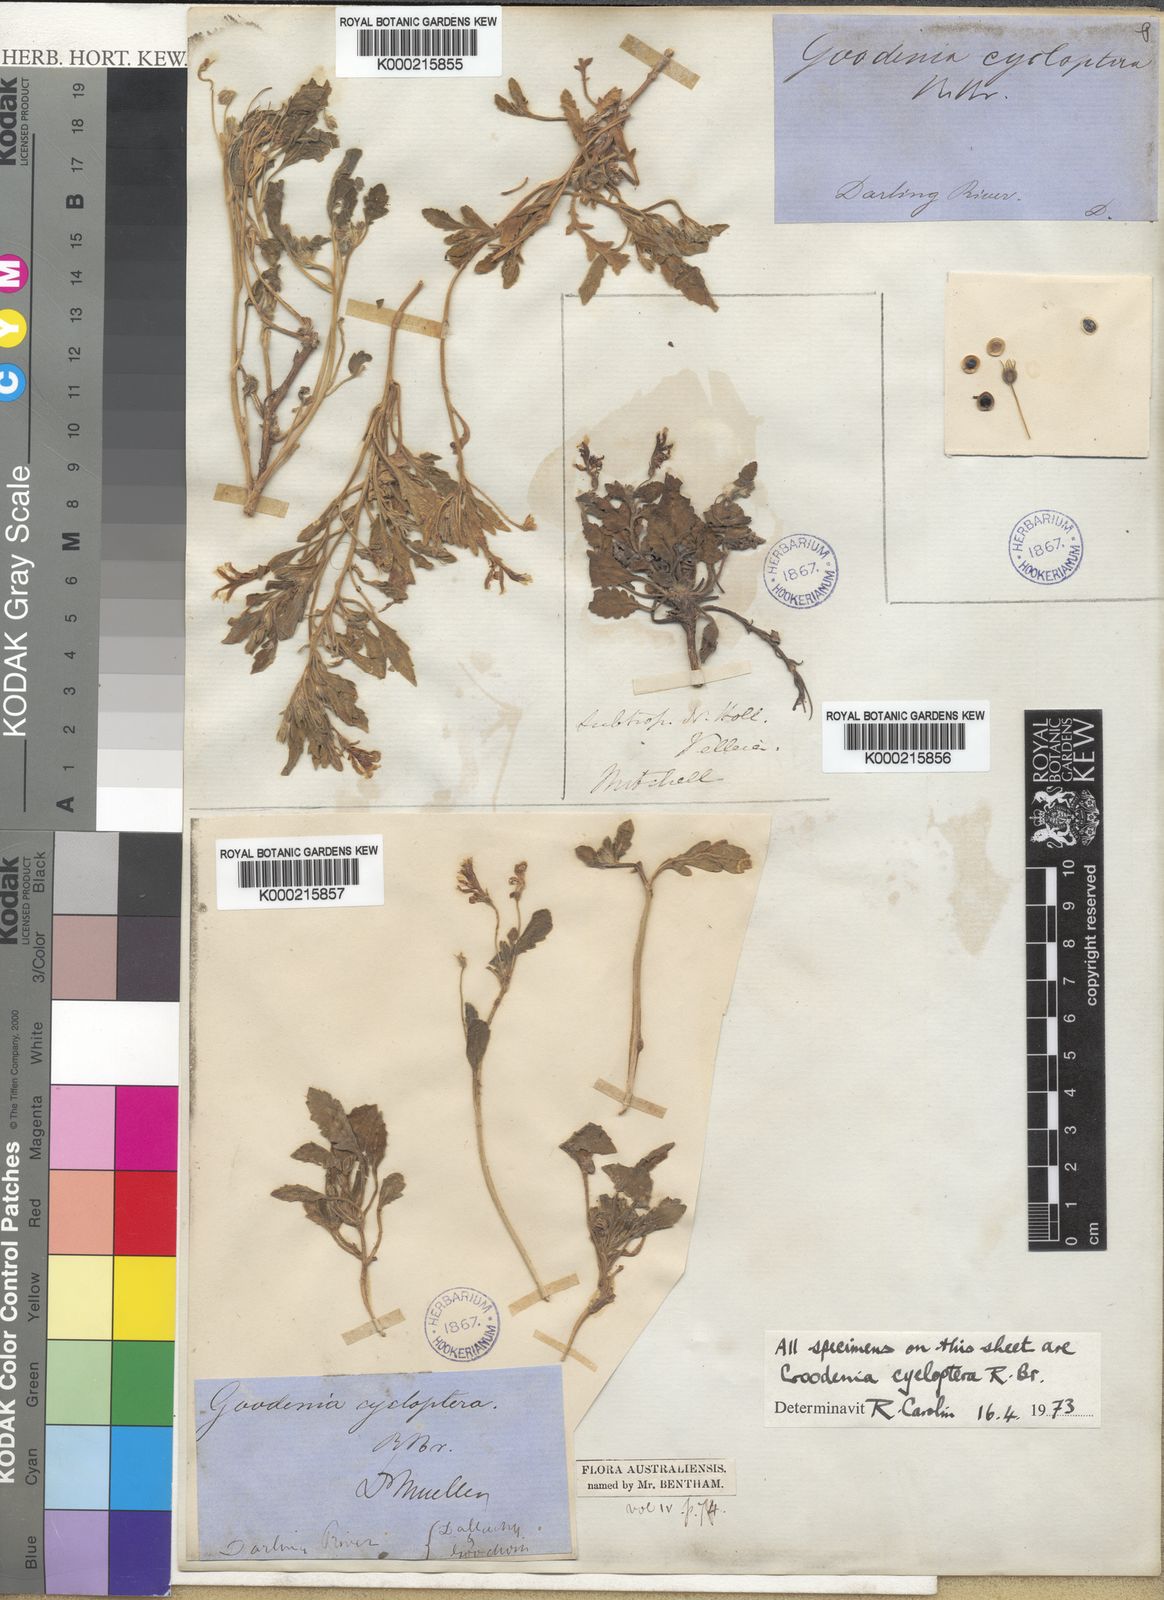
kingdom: Plantae
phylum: Tracheophyta
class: Magnoliopsida
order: Asterales
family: Goodeniaceae
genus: Goodenia
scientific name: Goodenia cycloptera
